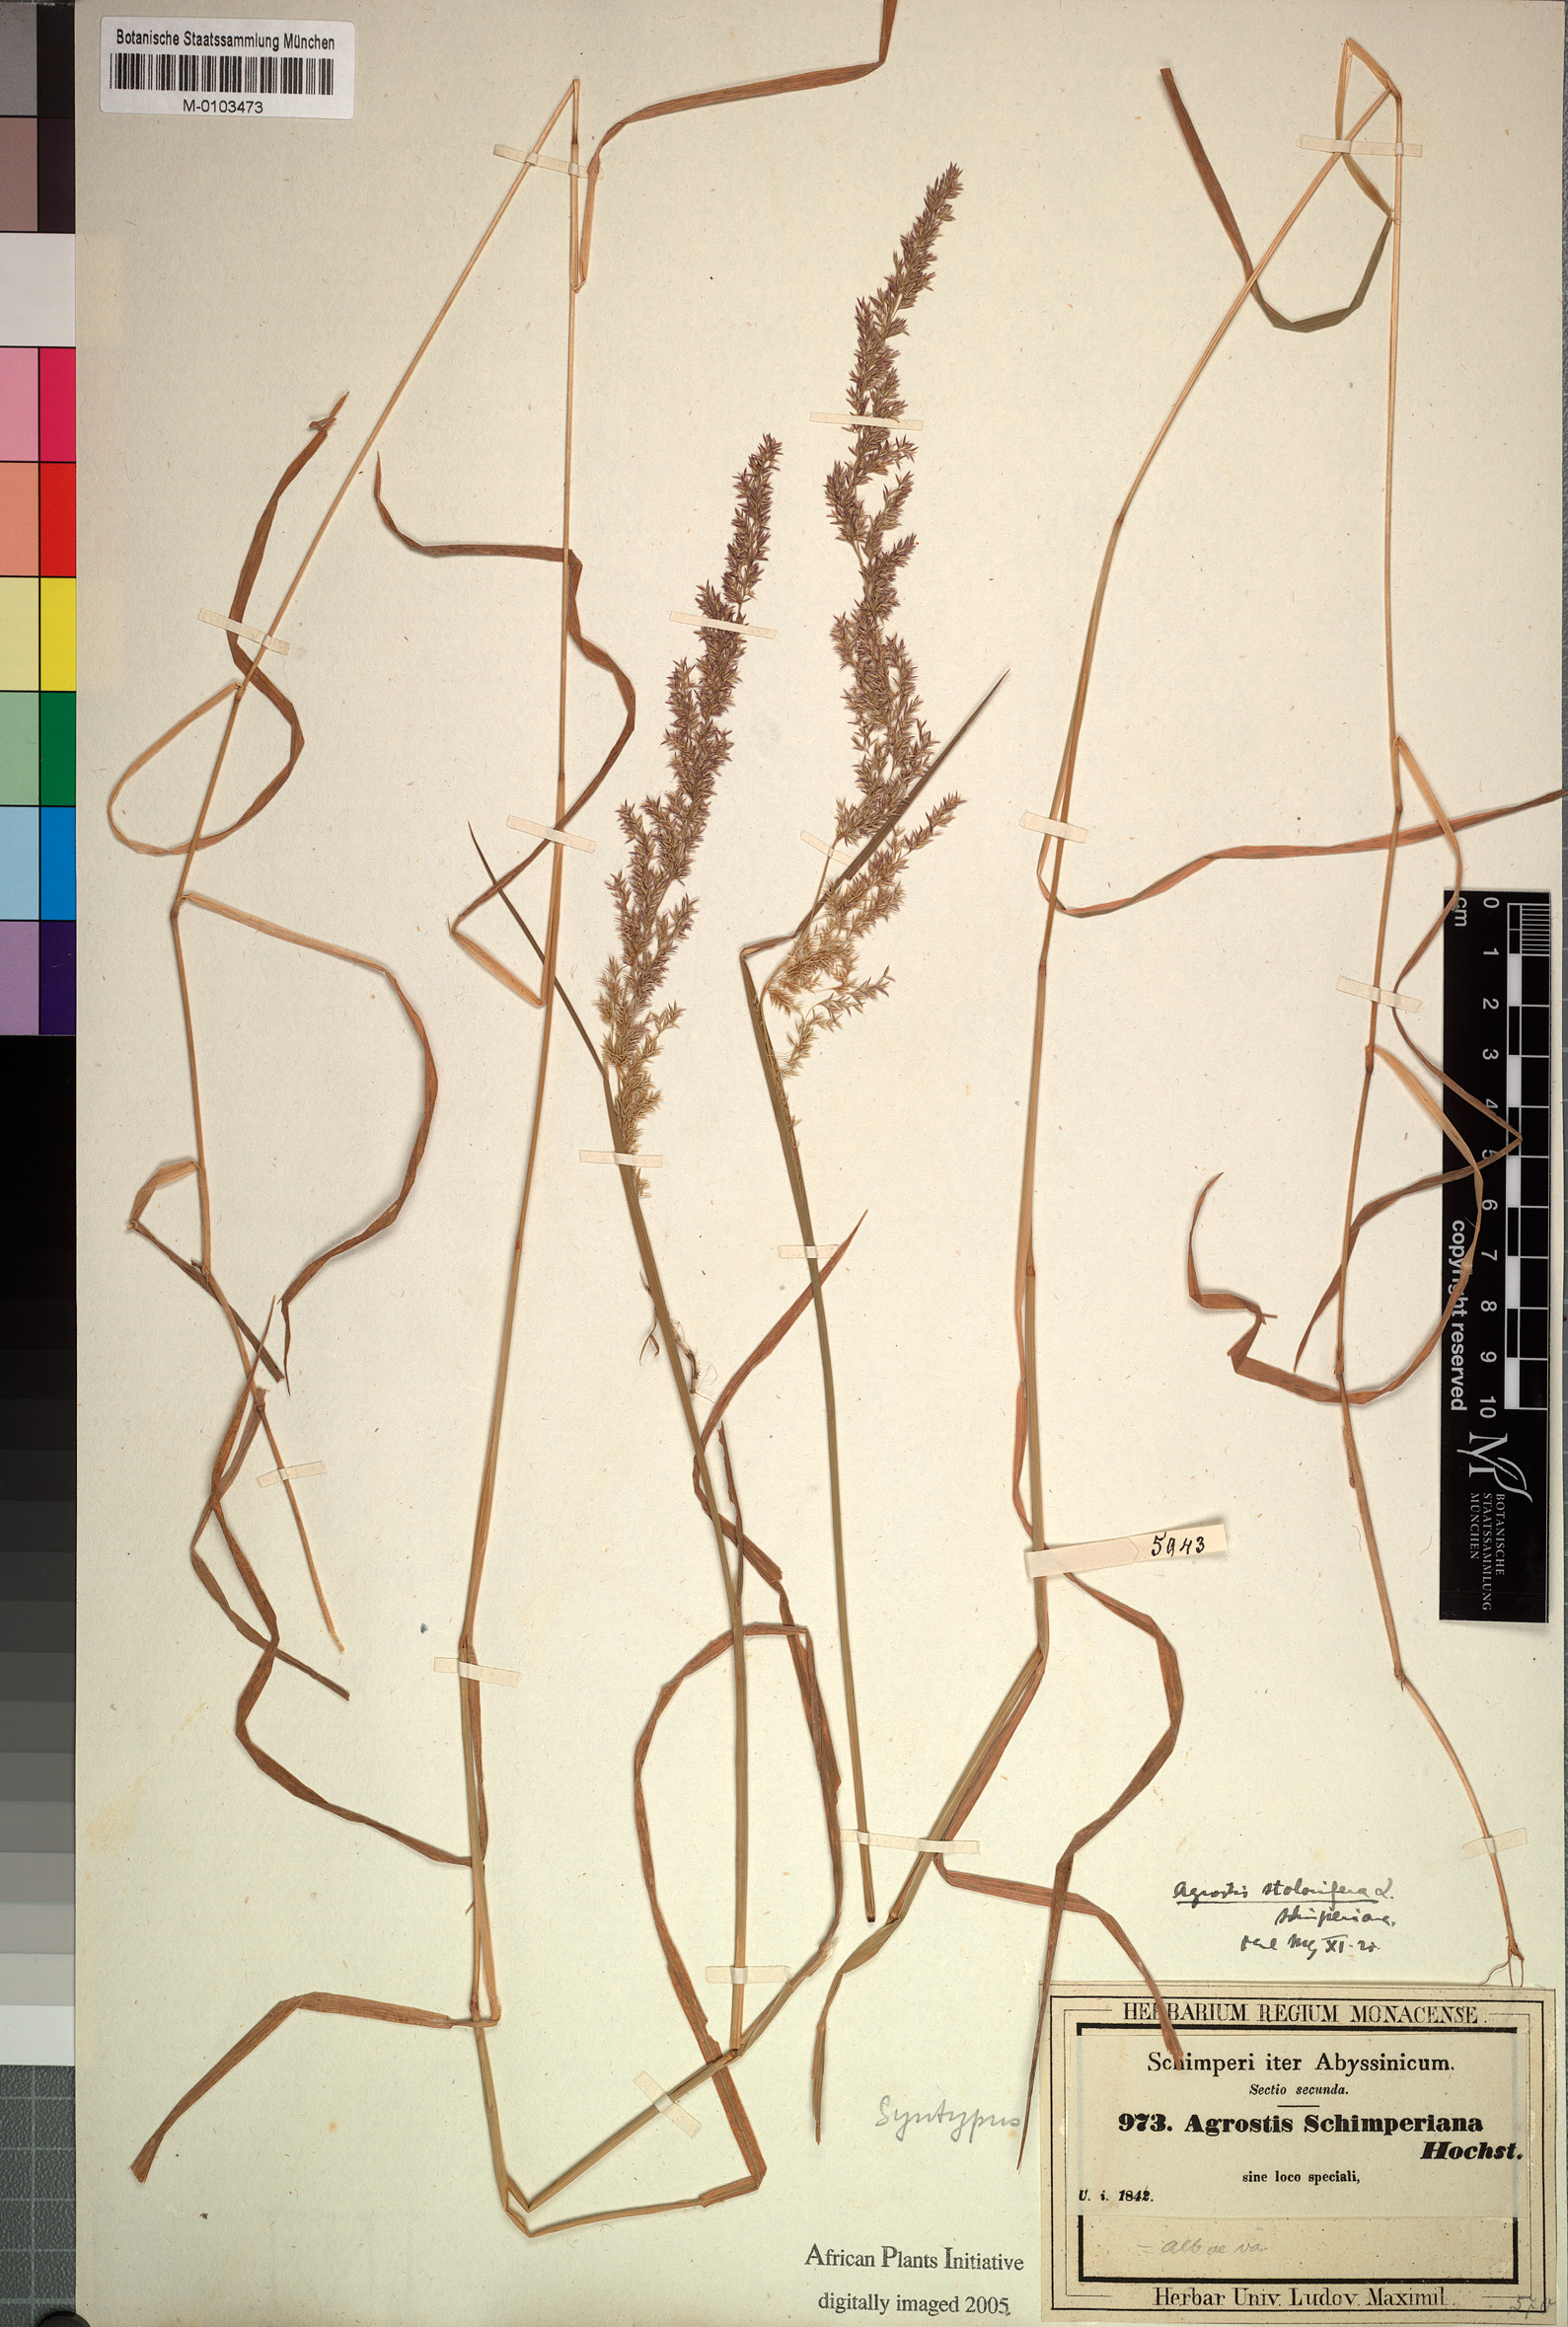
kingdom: Plantae
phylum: Tracheophyta
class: Liliopsida
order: Poales
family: Poaceae
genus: Polypogon
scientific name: Polypogon schimperianus
